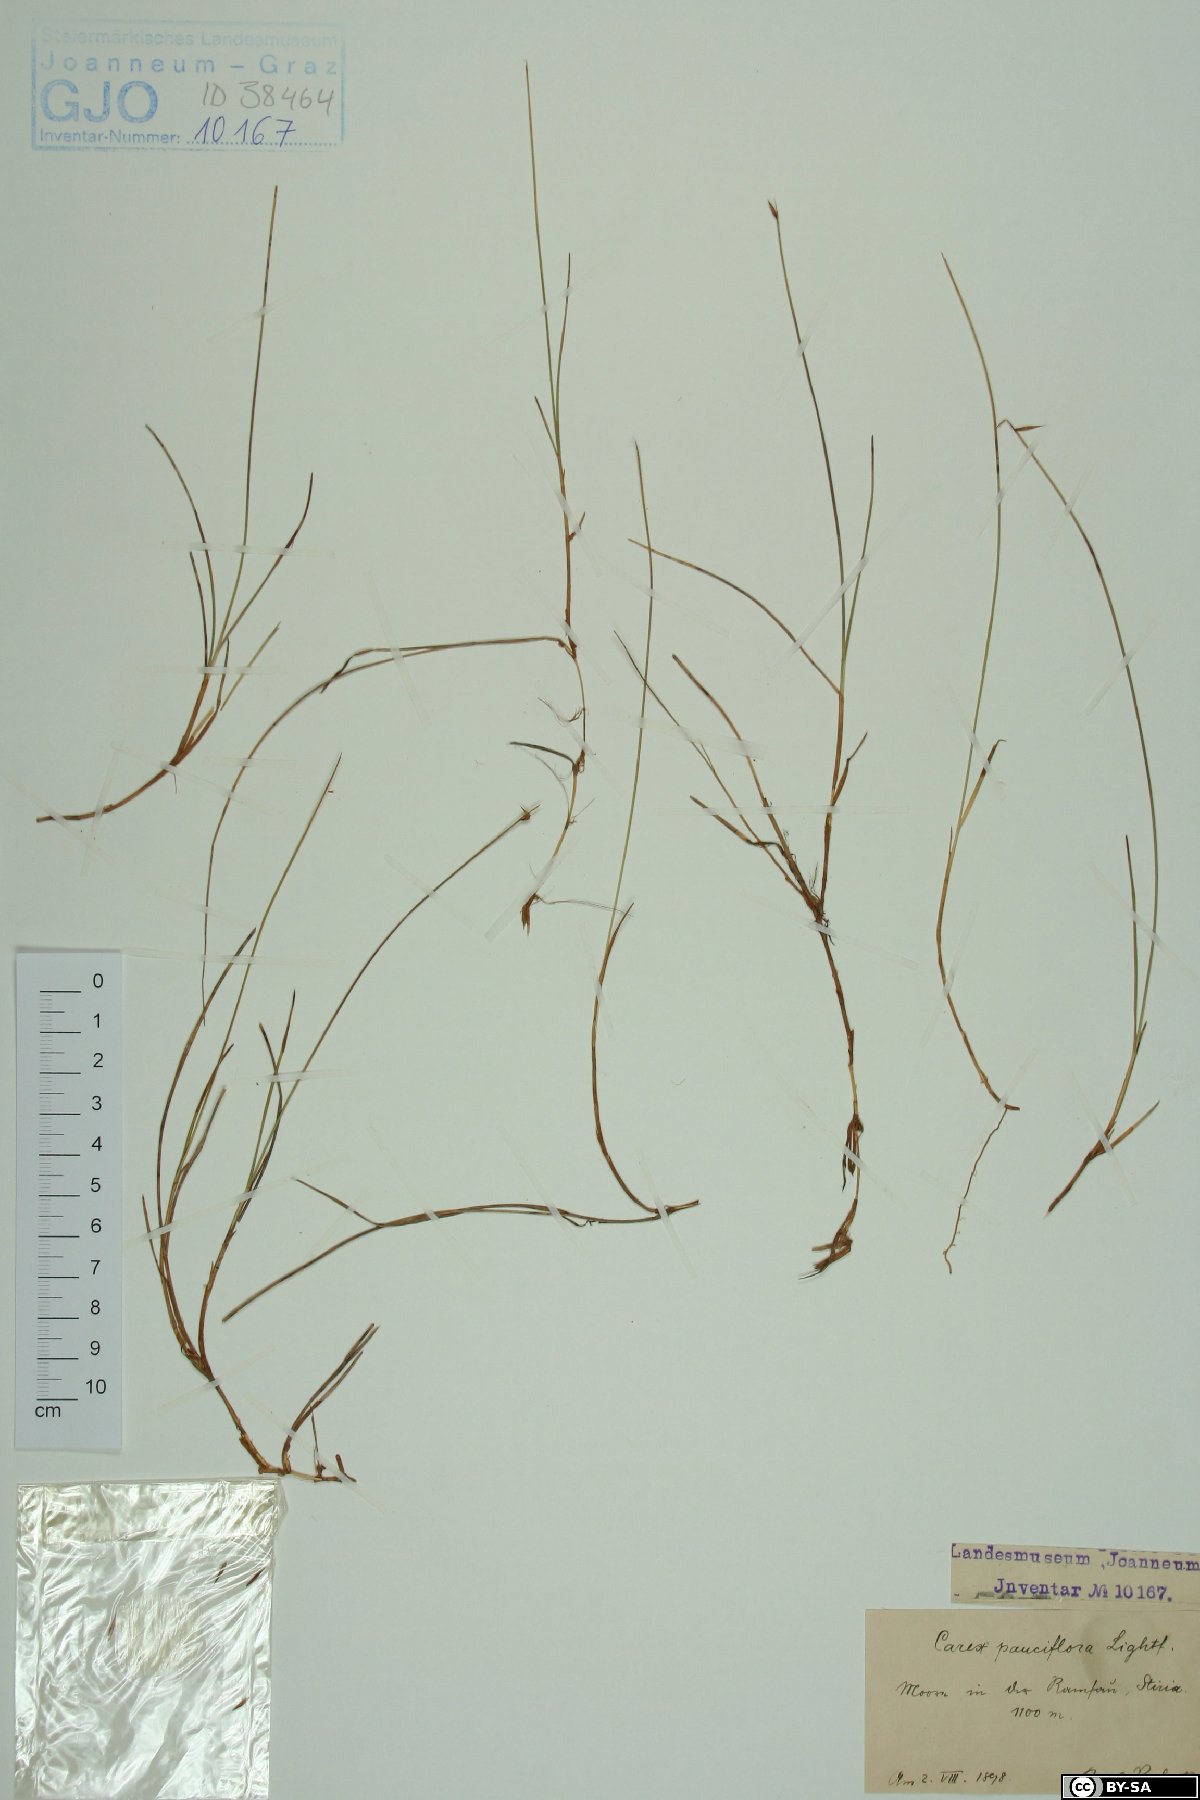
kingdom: Plantae
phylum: Tracheophyta
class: Liliopsida
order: Poales
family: Cyperaceae
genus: Carex
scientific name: Carex pauciflora
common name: Few-flowered sedge
